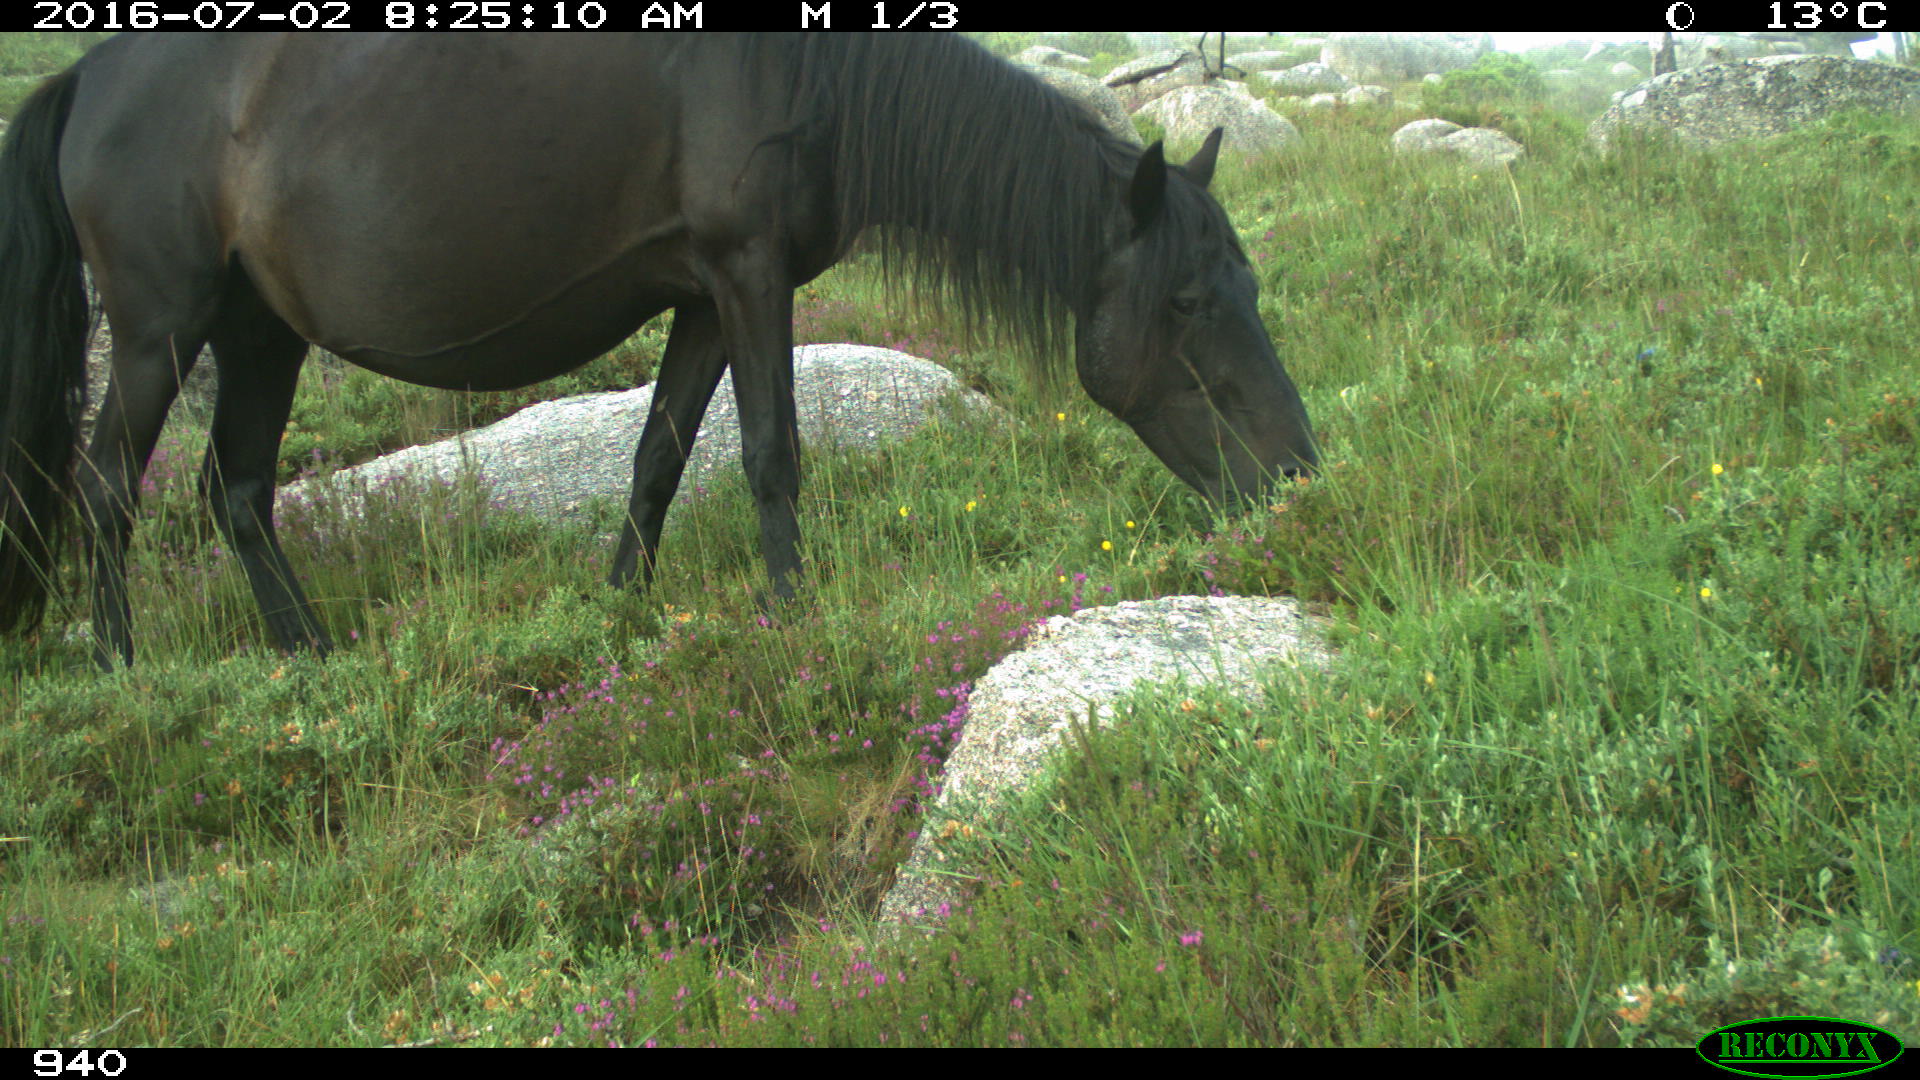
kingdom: Animalia
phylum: Chordata
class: Mammalia
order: Perissodactyla
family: Equidae
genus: Equus
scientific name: Equus caballus
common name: Horse
